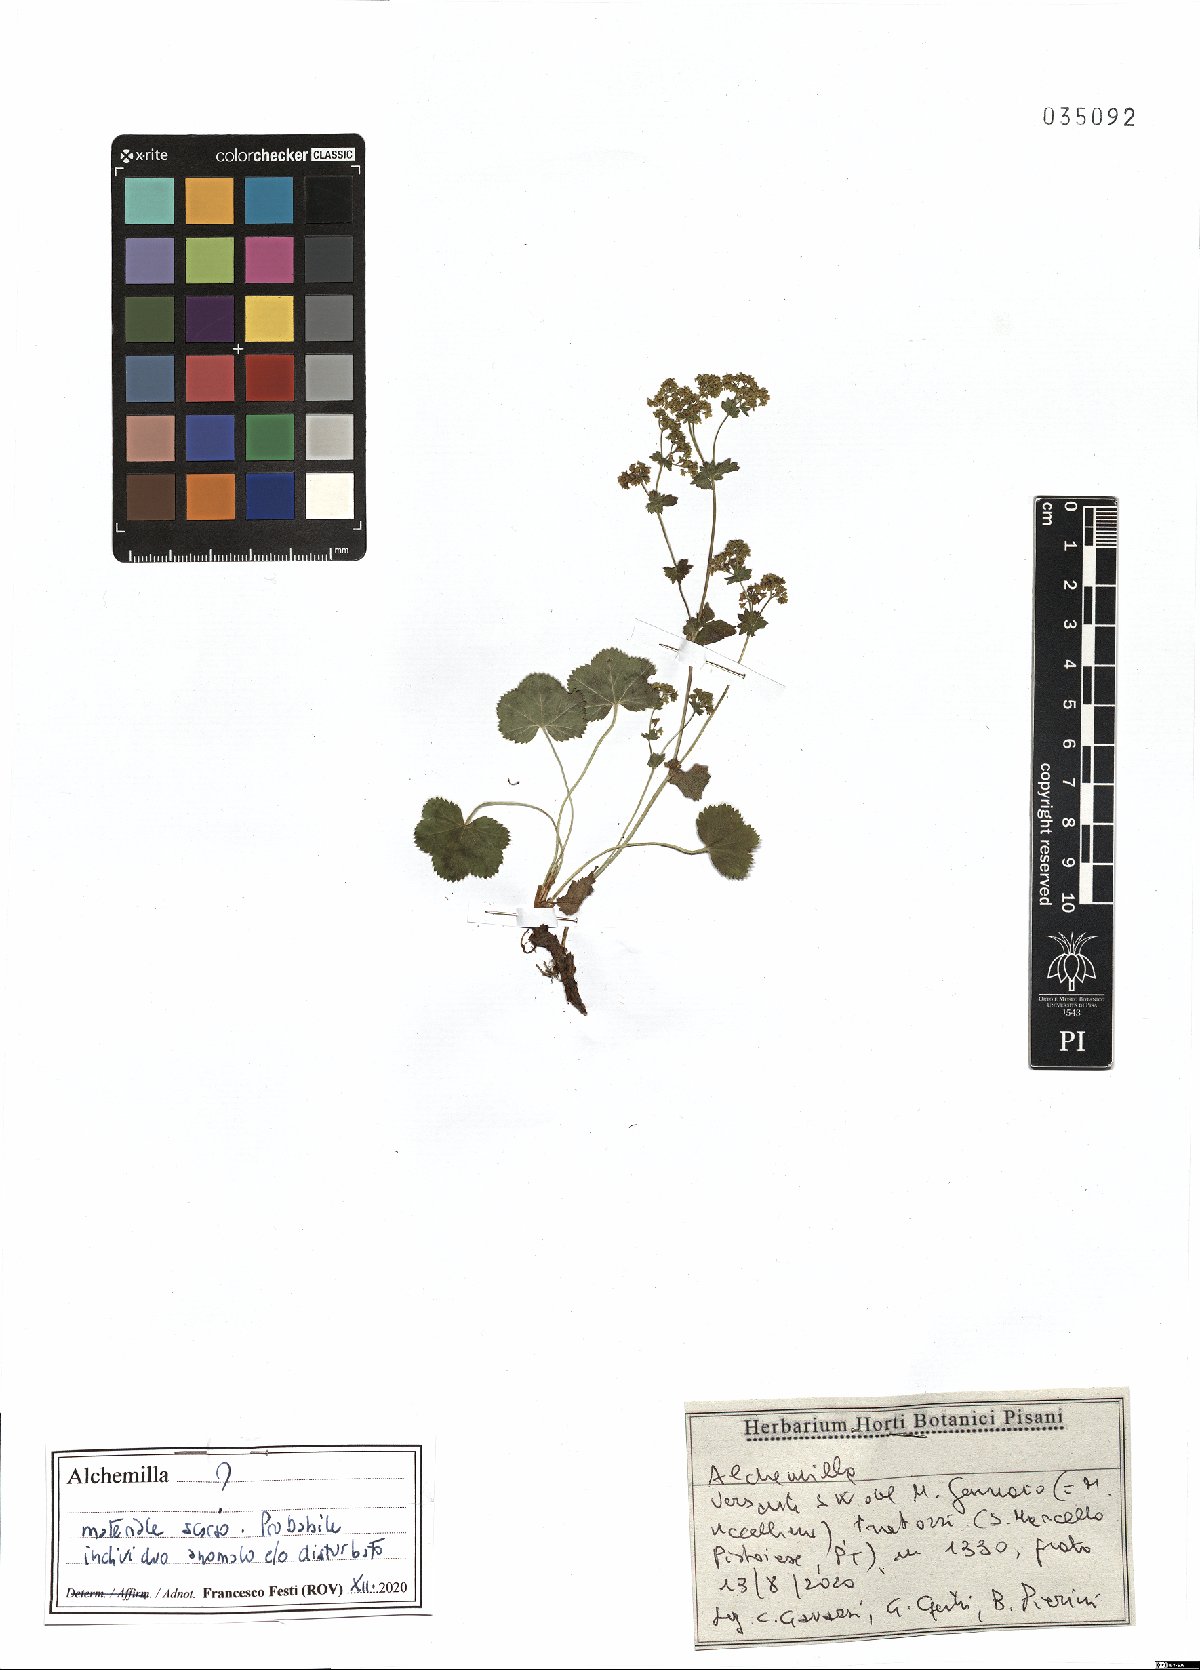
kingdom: Plantae
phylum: Tracheophyta
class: Magnoliopsida
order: Rosales
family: Rosaceae
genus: Alchemilla
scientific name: Alchemilla
